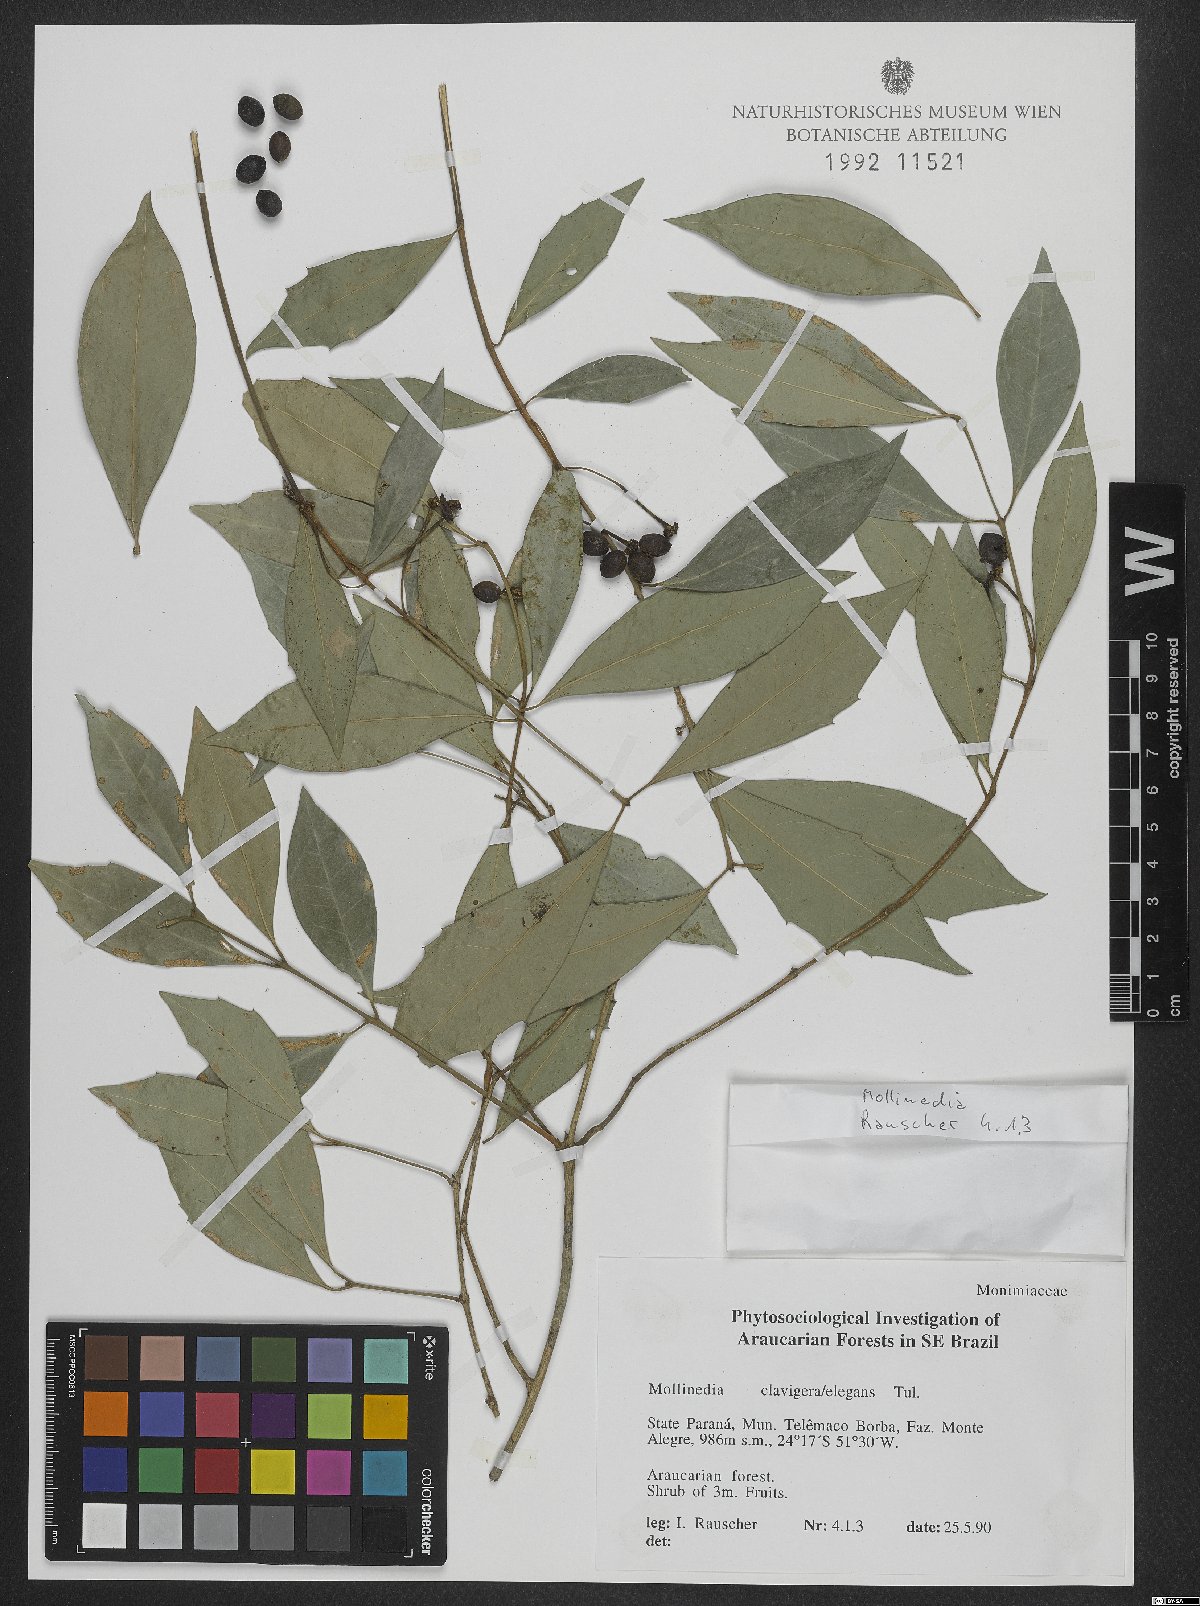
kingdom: Plantae
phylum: Tracheophyta
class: Magnoliopsida
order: Laurales
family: Monimiaceae
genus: Mollinedia
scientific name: Mollinedia clavigera
